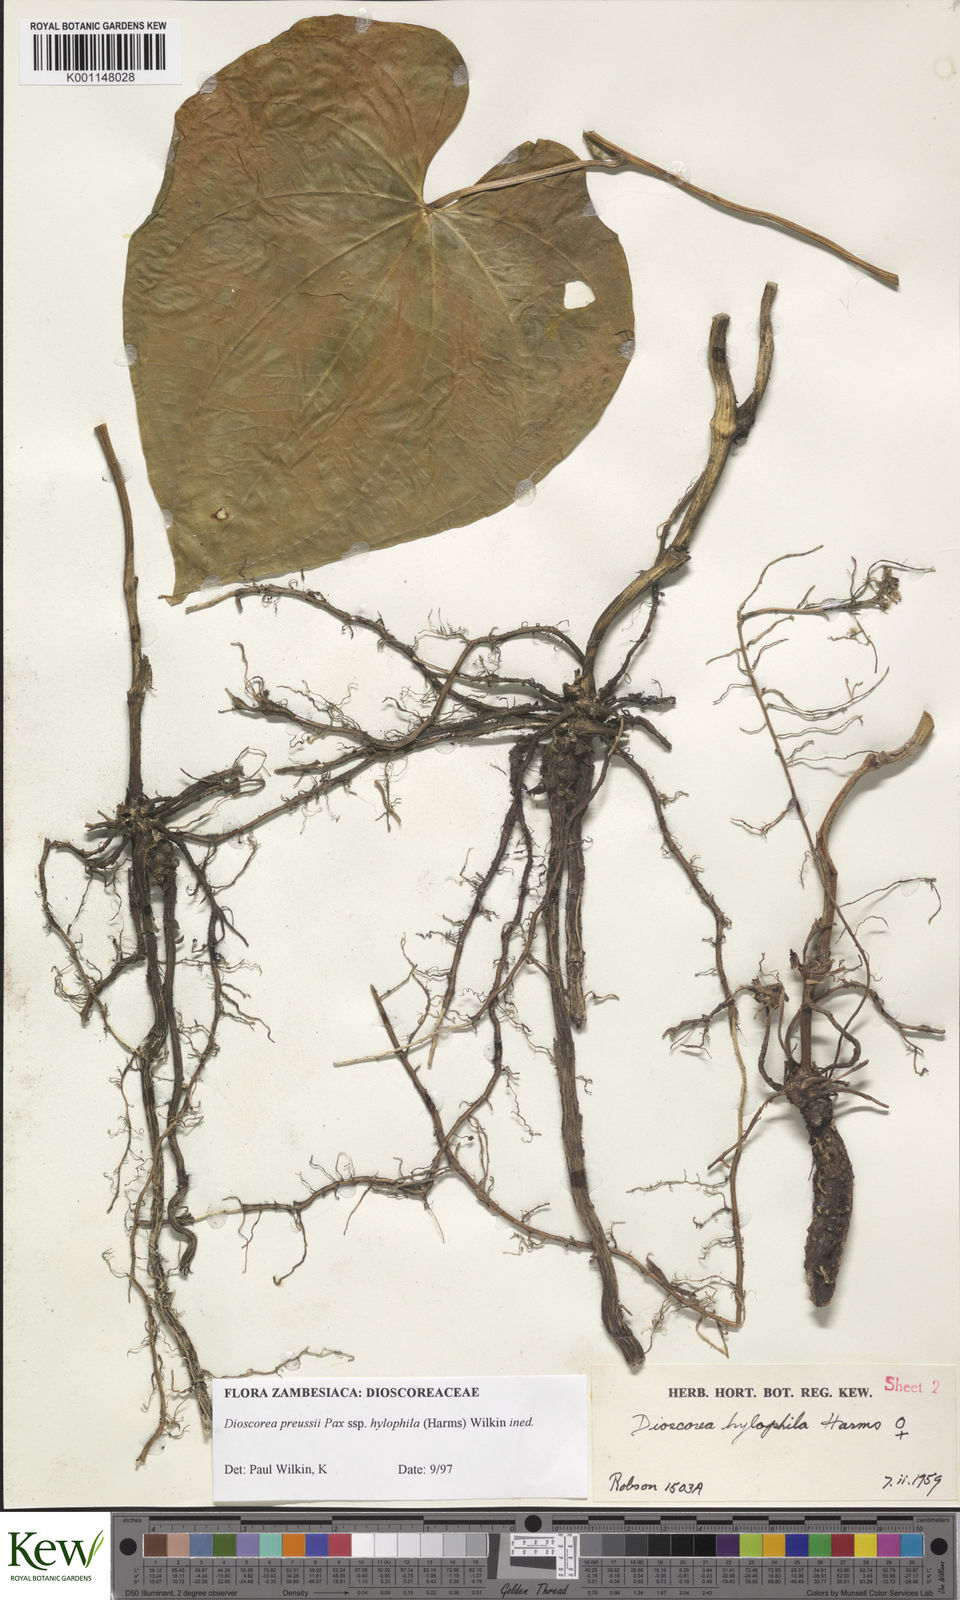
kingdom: Plantae
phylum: Tracheophyta
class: Liliopsida
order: Dioscoreales
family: Dioscoreaceae
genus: Dioscorea
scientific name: Dioscorea preussii
